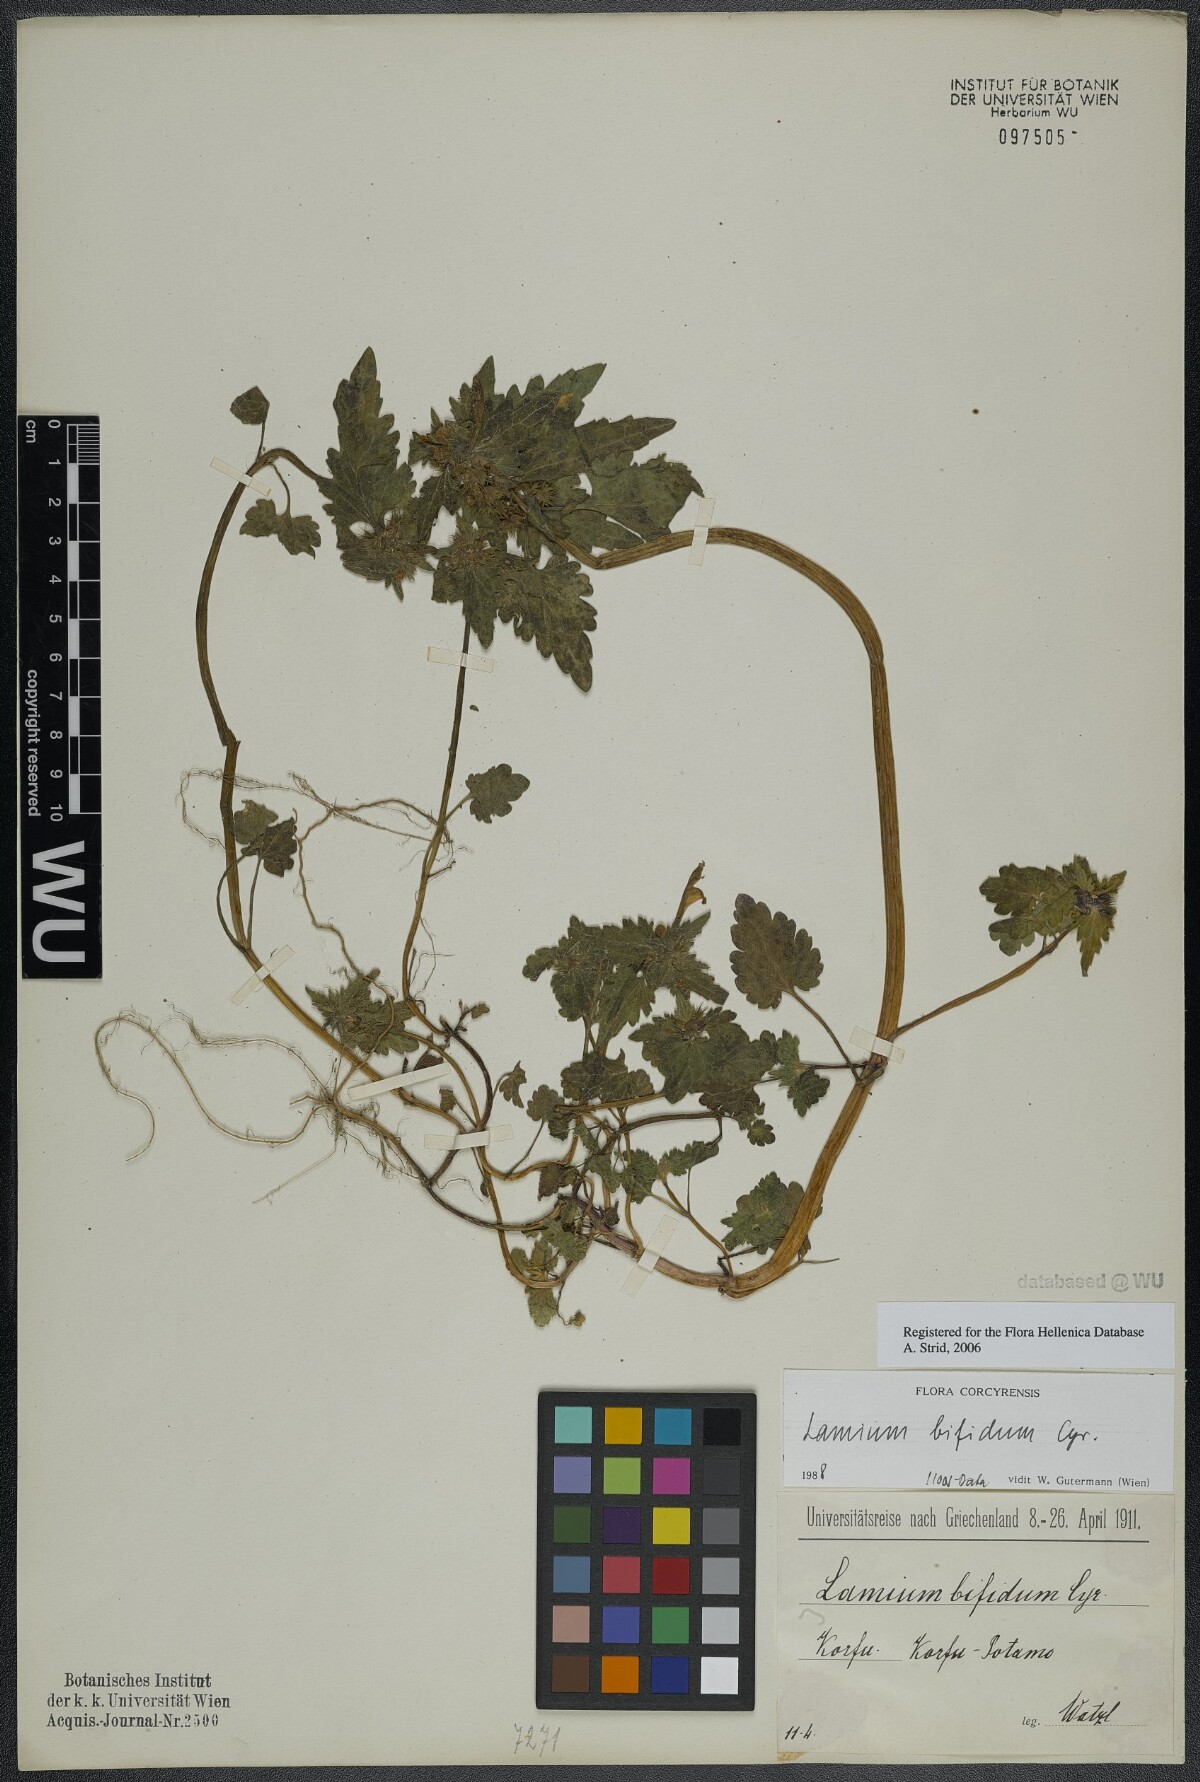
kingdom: Plantae
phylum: Tracheophyta
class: Magnoliopsida
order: Lamiales
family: Lamiaceae
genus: Lamium
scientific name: Lamium bifidum
